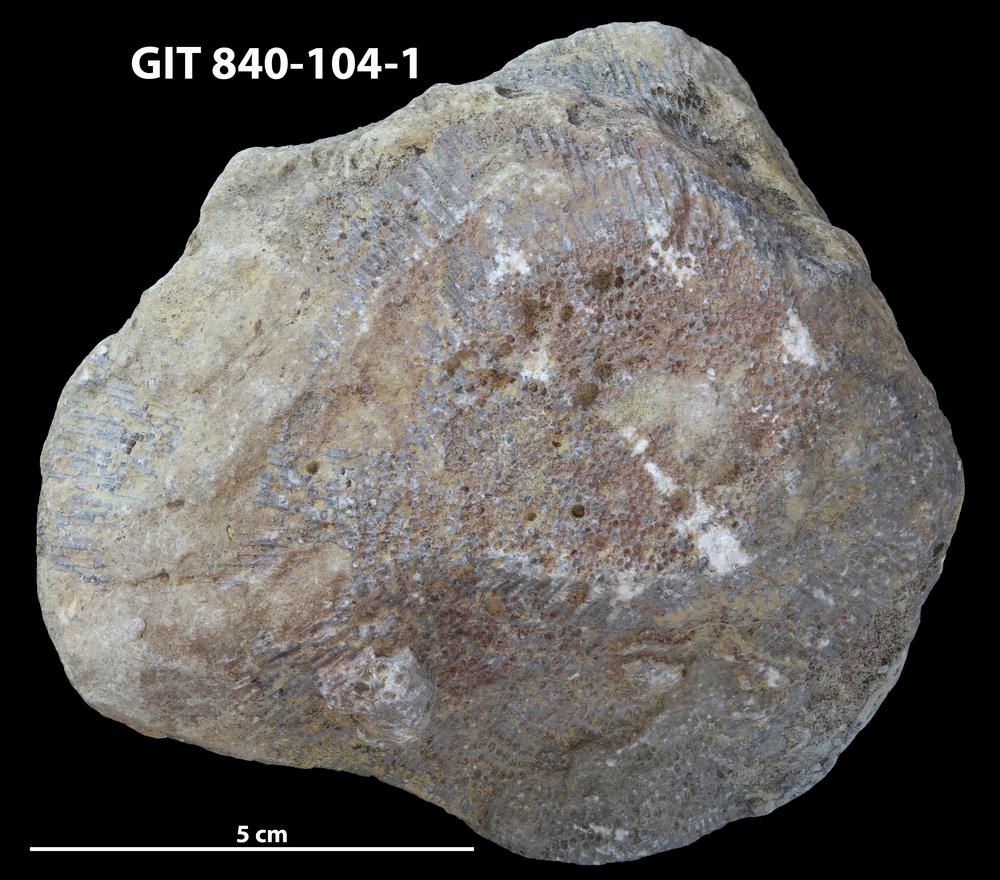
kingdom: Animalia
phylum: Cnidaria
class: Anthozoa
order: Heliolitina
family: Proheliolitidae
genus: Protoheliolites
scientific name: Protoheliolites
